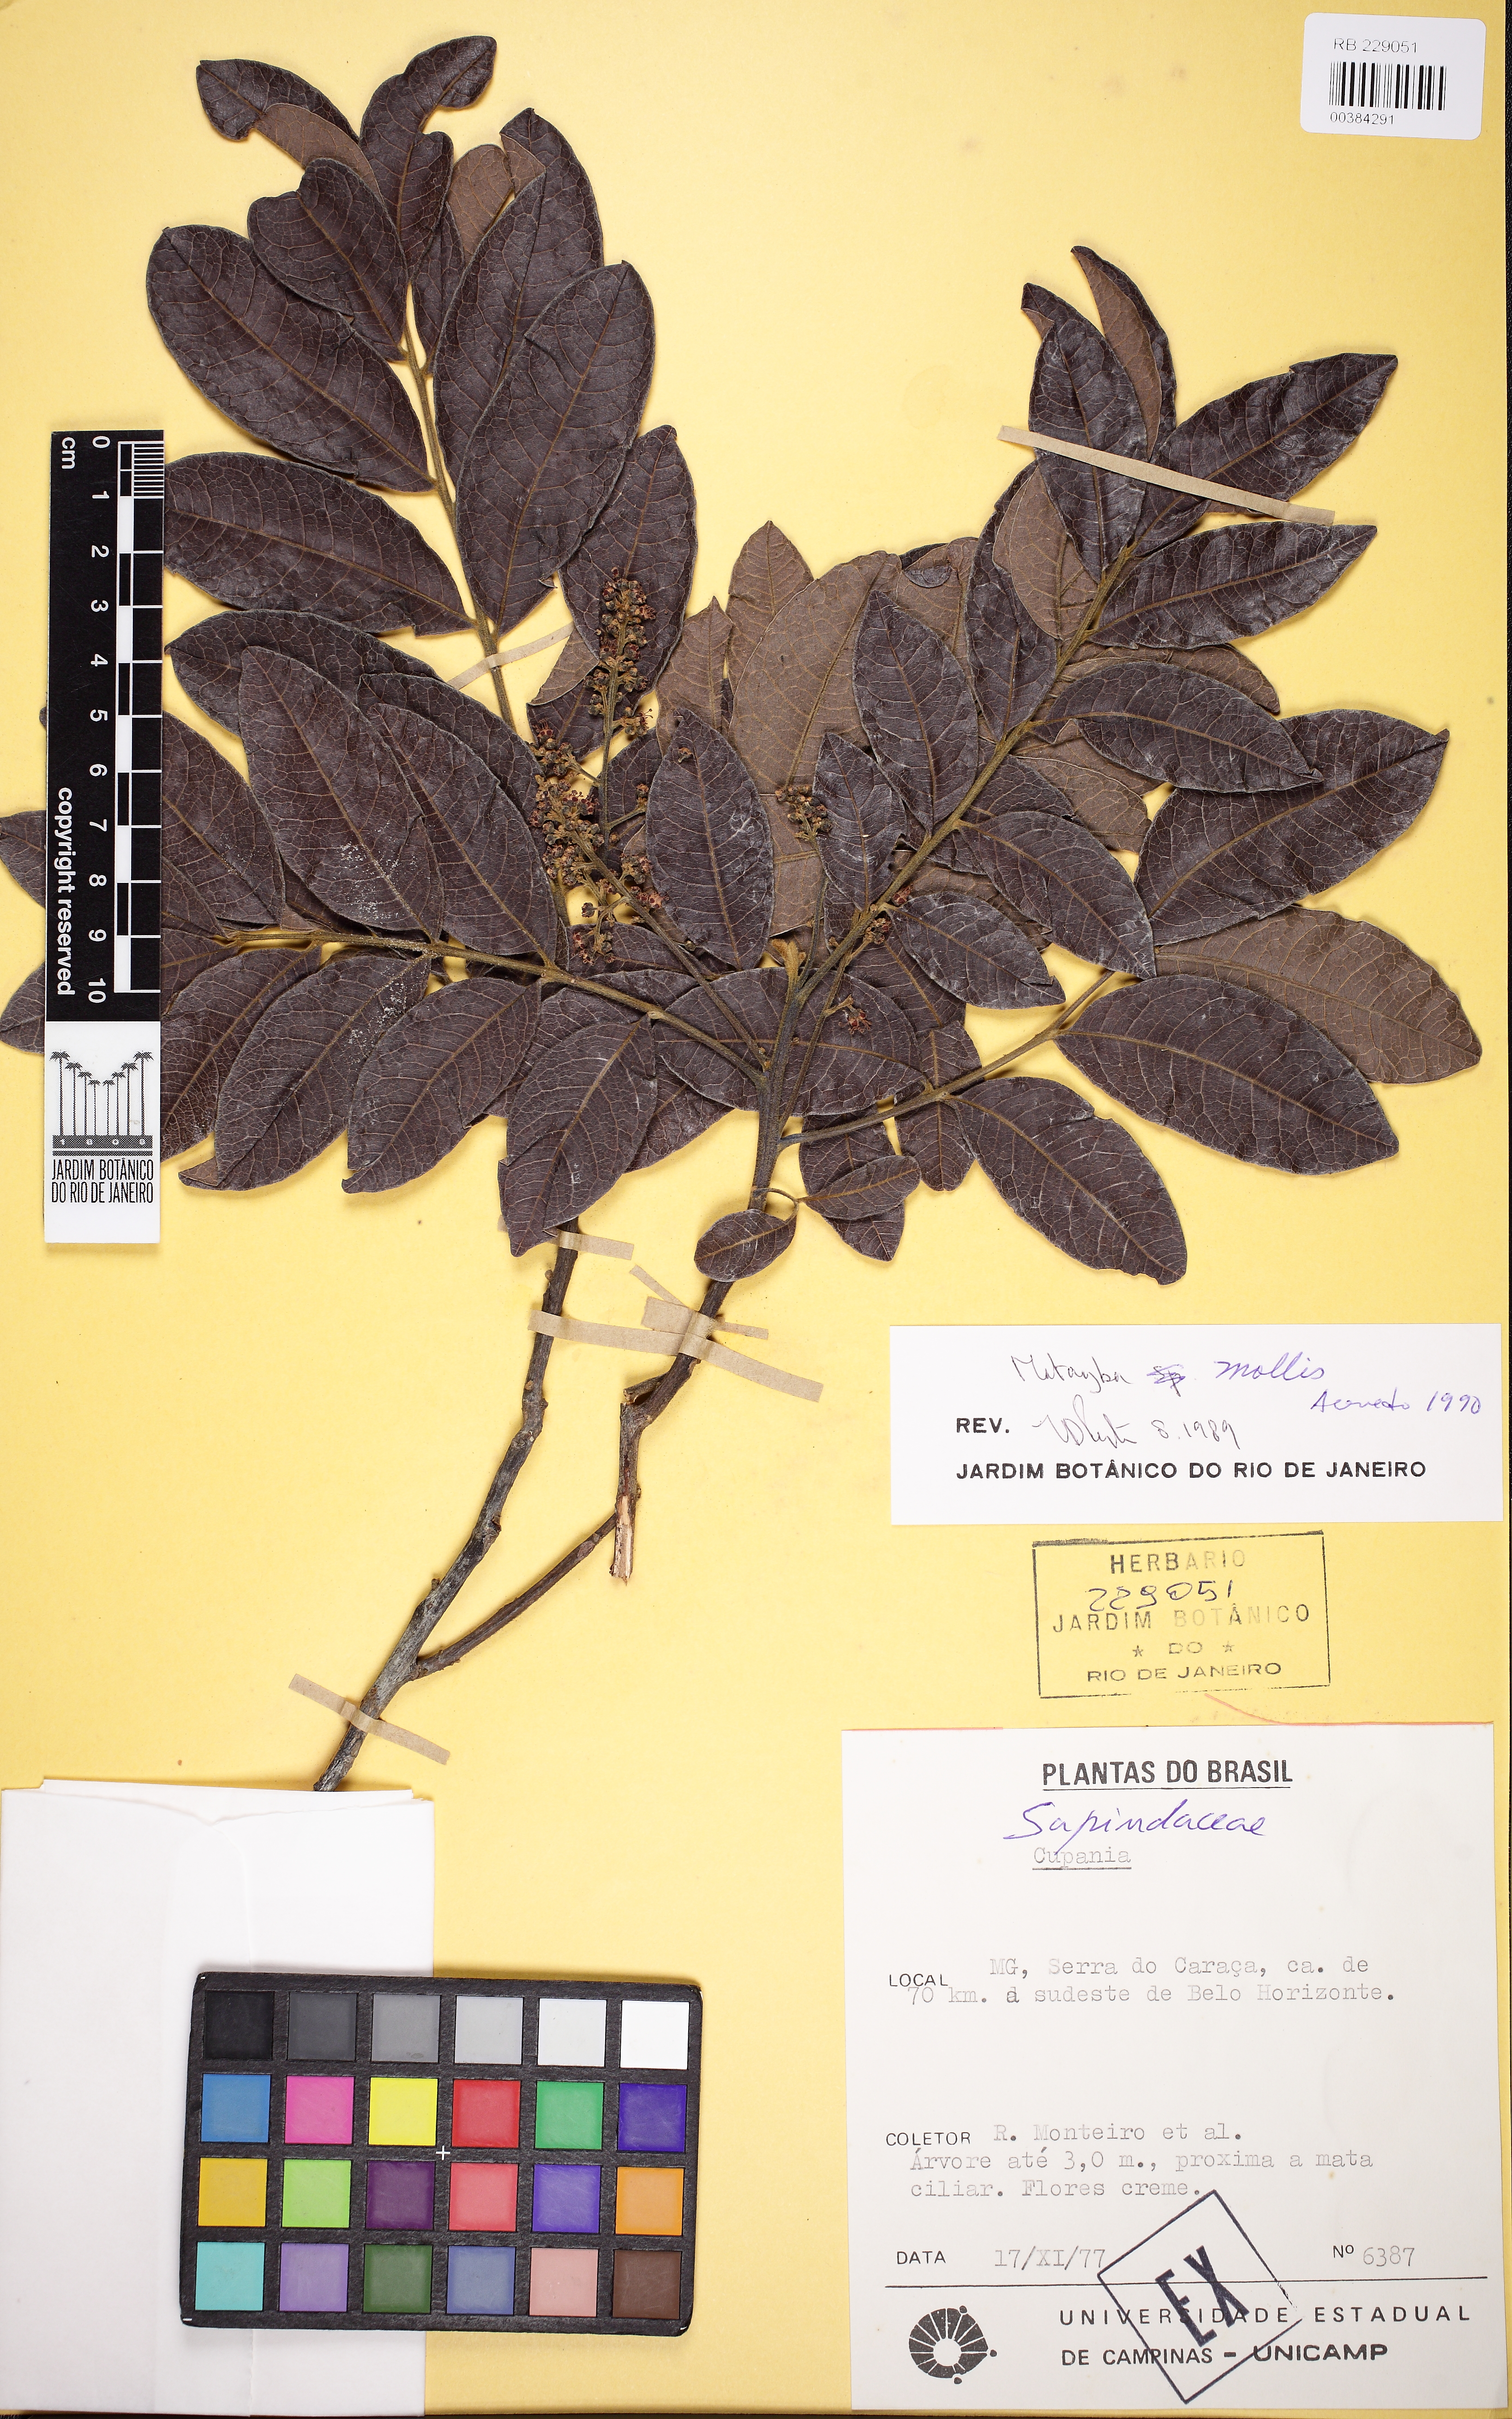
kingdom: Plantae
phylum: Tracheophyta
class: Magnoliopsida
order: Sapindales
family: Sapindaceae
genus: Matayba
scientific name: Matayba mollis
